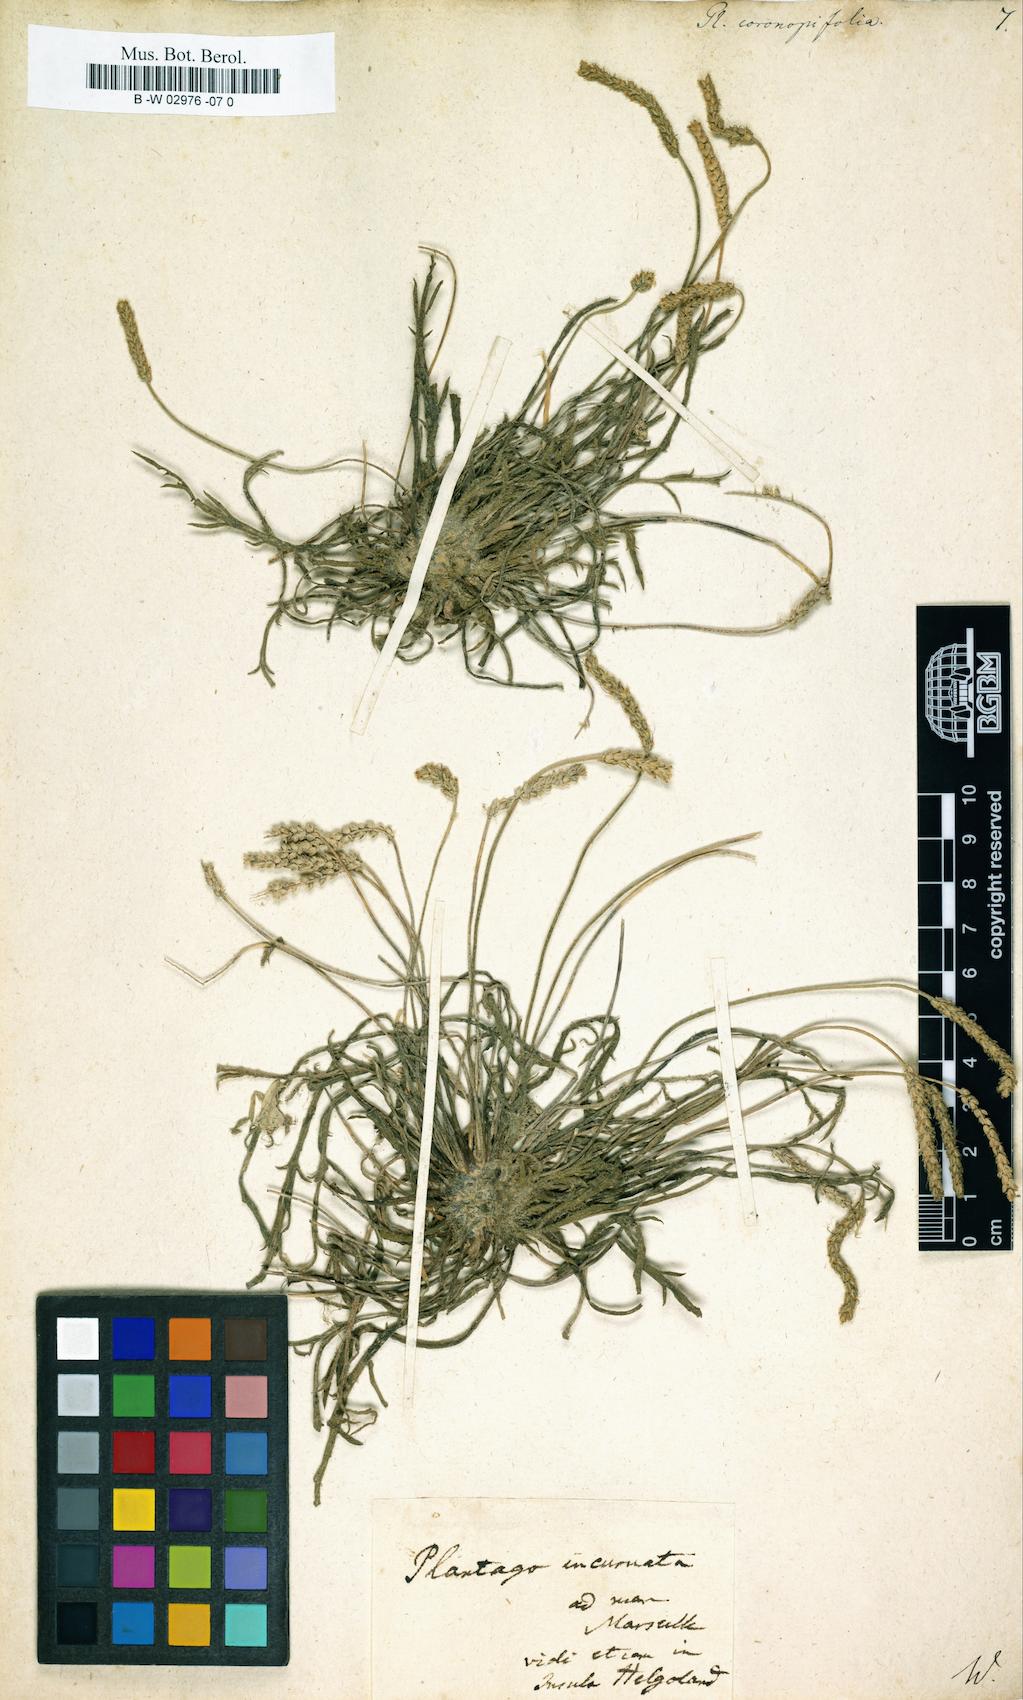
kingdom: Plantae
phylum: Tracheophyta
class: Magnoliopsida
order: Lamiales
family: Plantaginaceae
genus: Plantago
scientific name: Plantago
